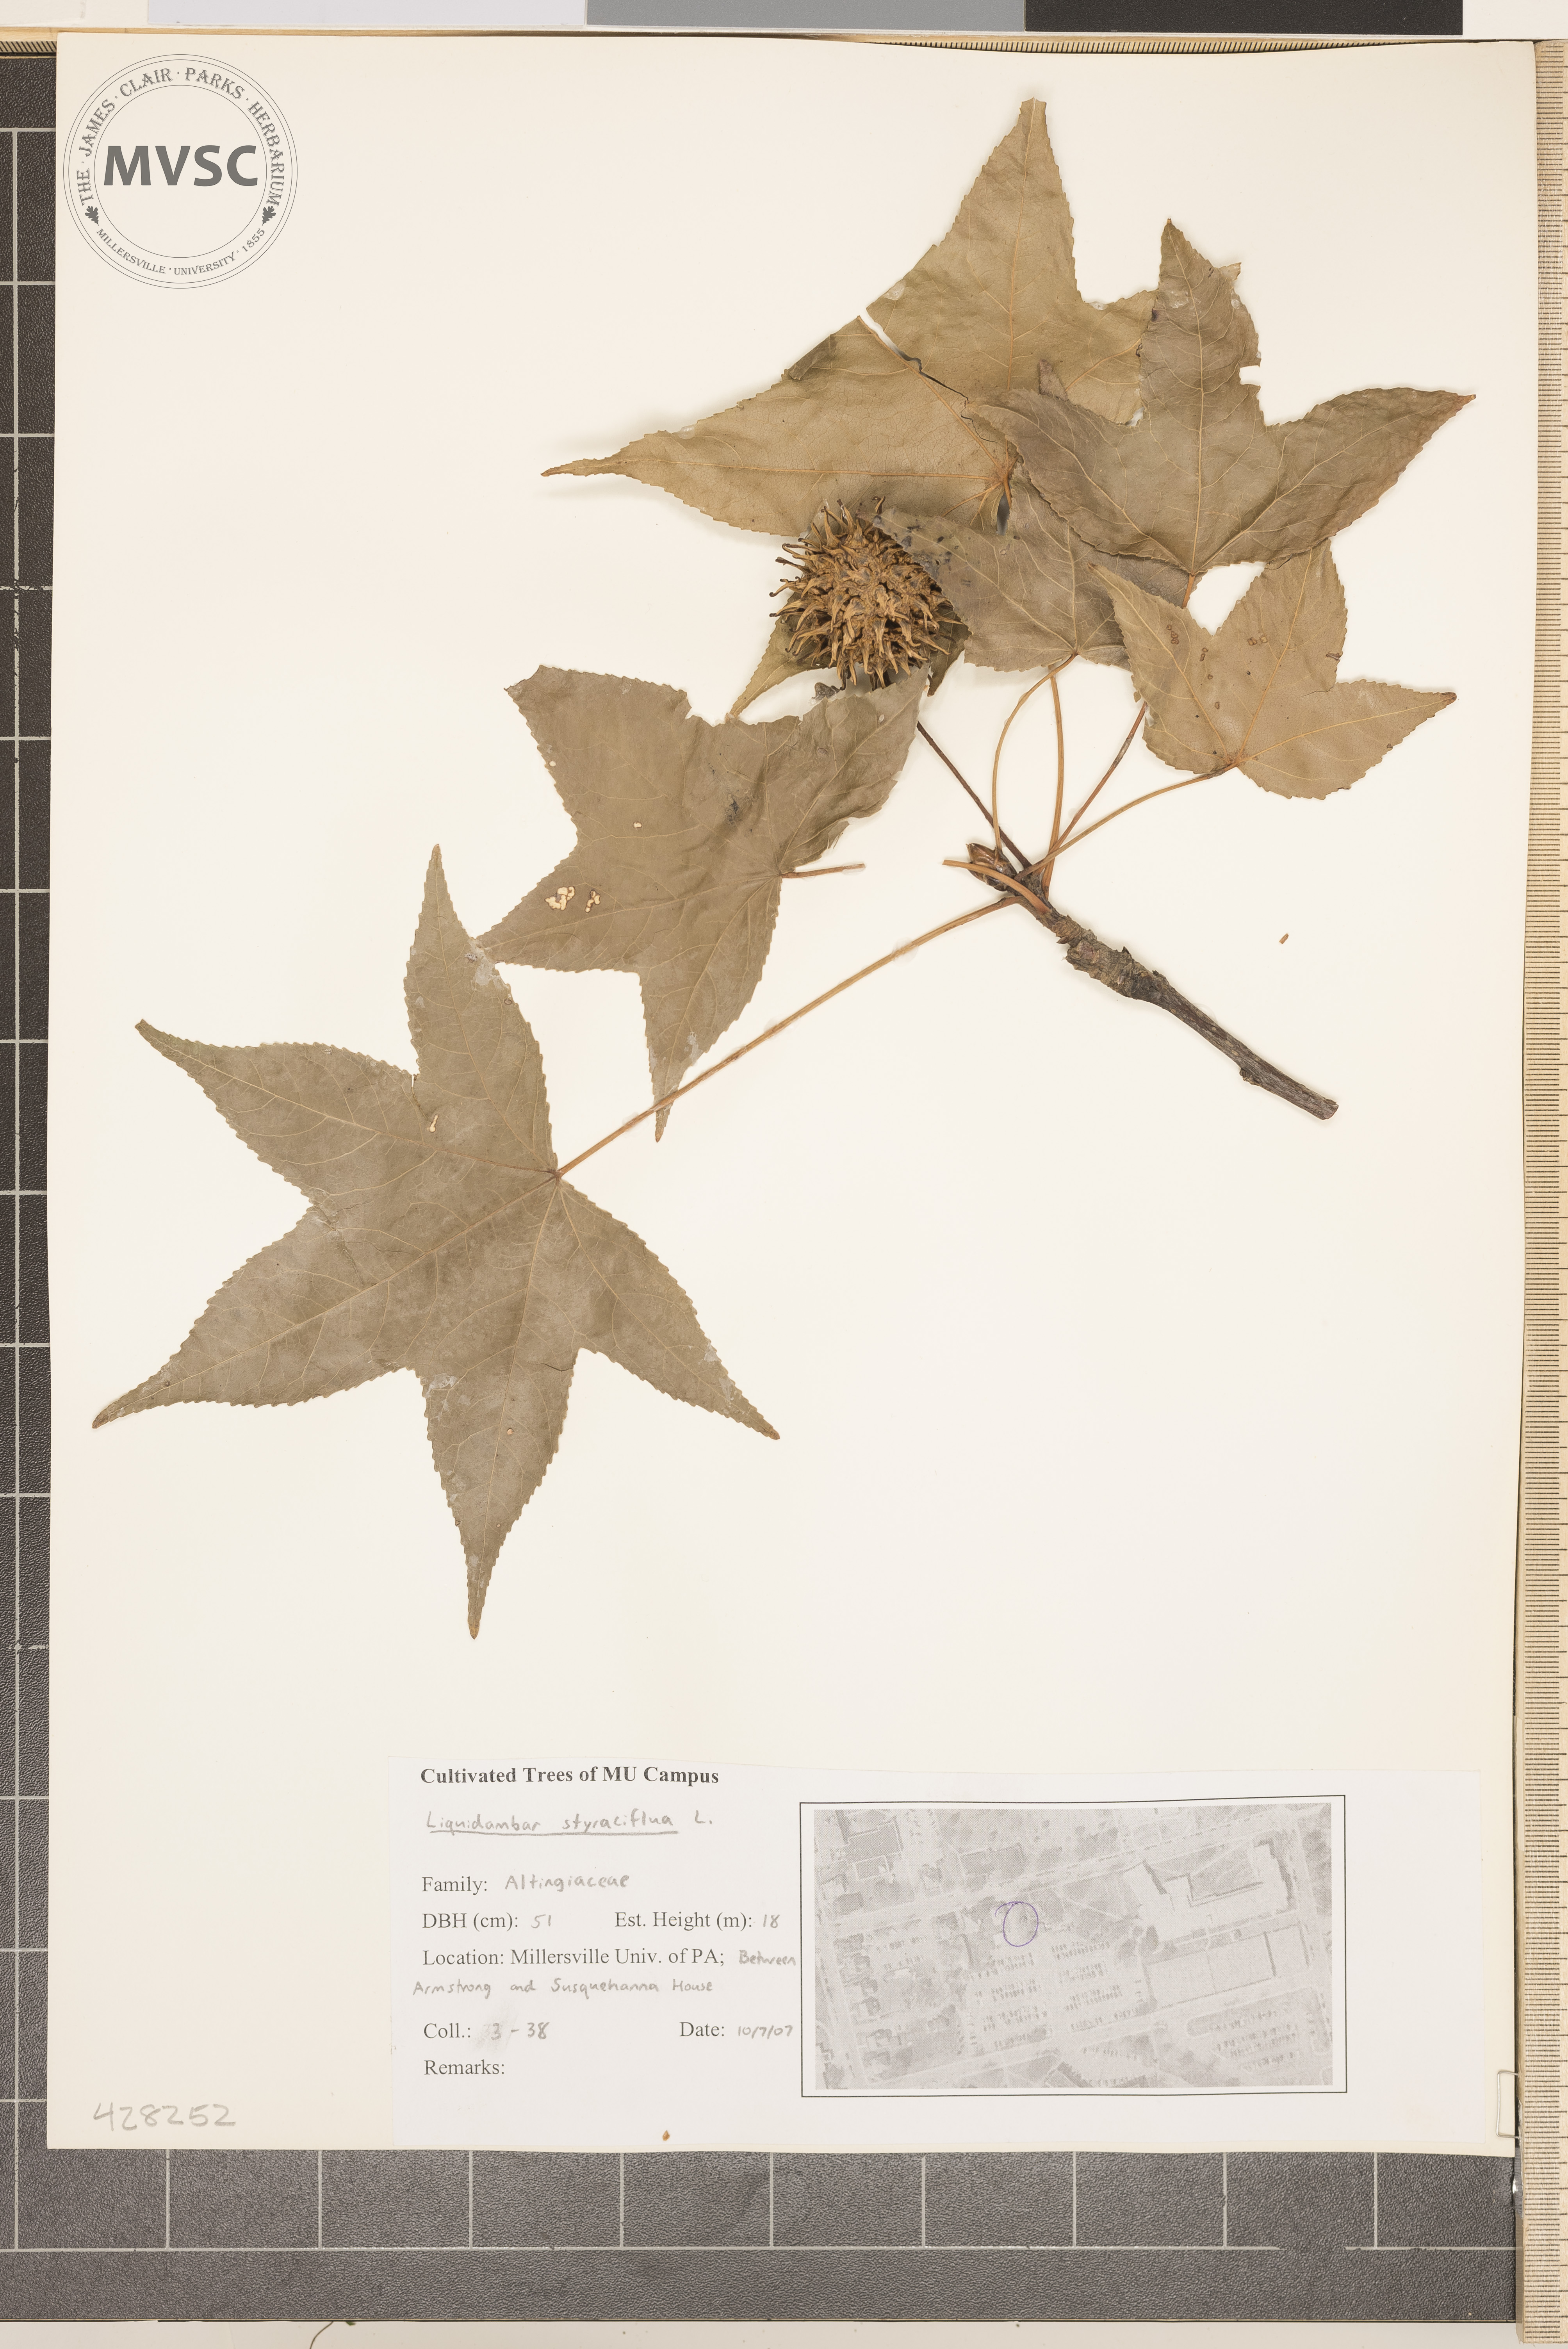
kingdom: Plantae
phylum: Tracheophyta
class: Magnoliopsida
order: Saxifragales
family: Altingiaceae
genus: Liquidambar
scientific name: Liquidambar styraciflua
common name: Sweetgum
